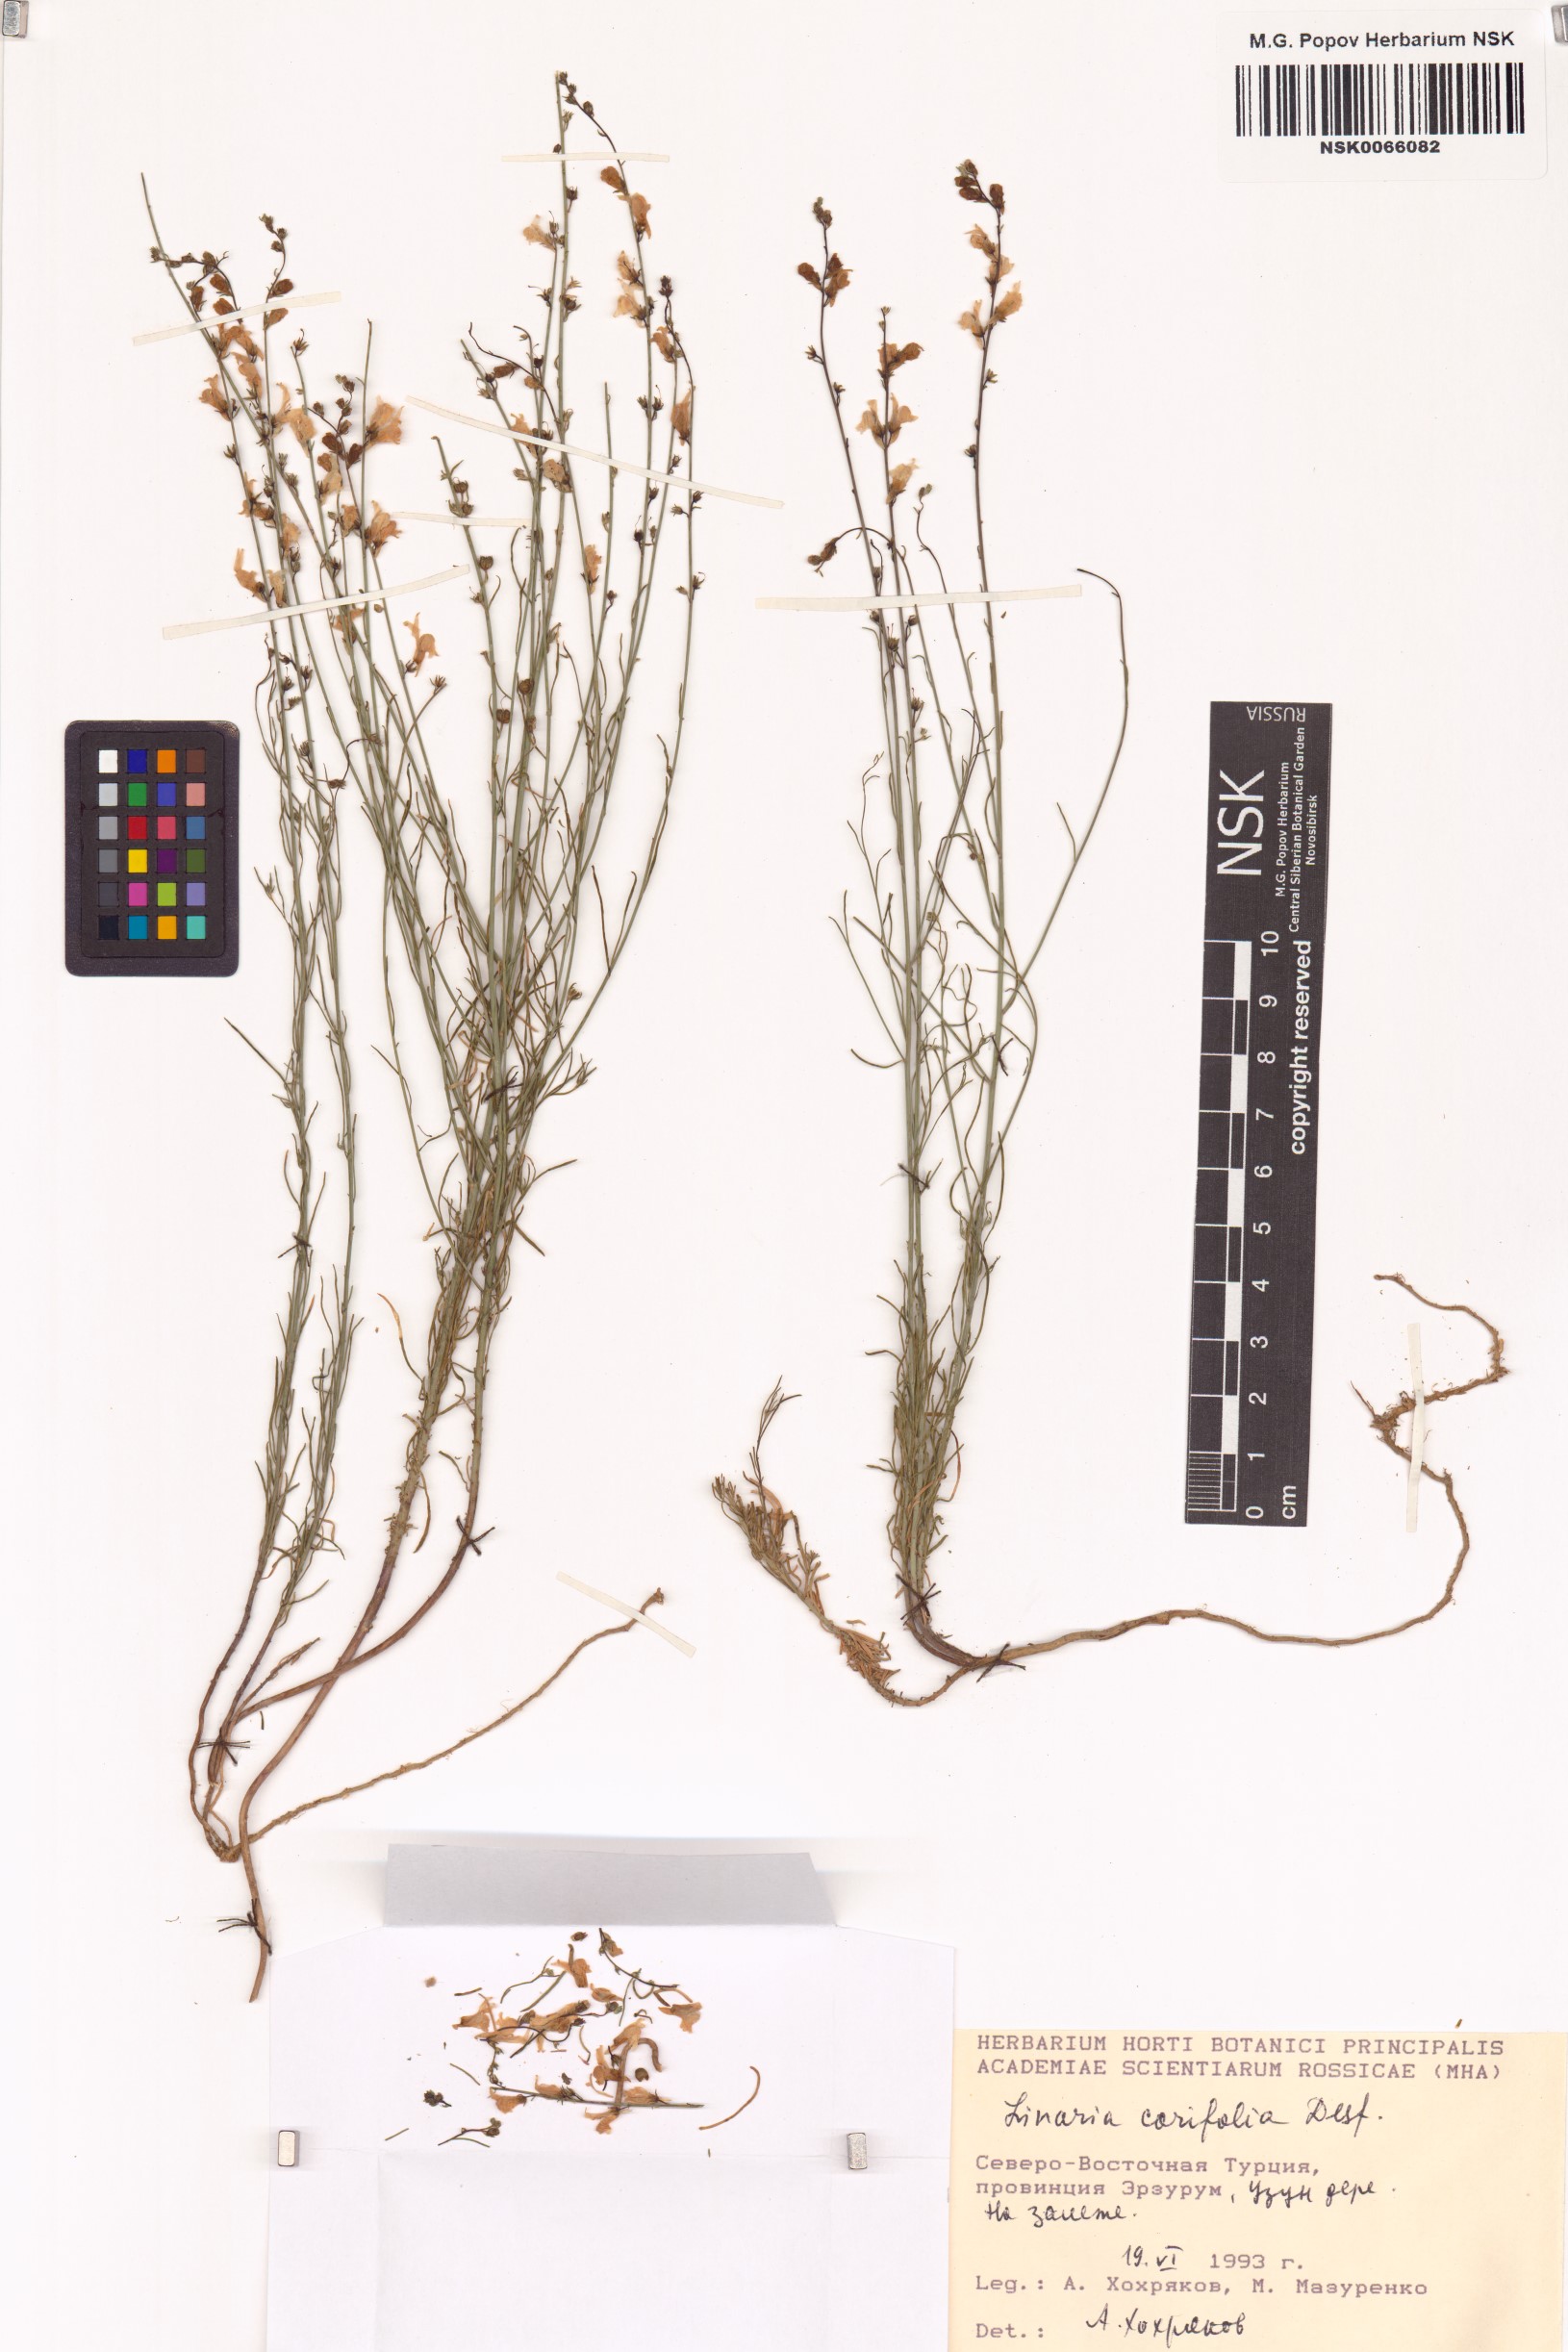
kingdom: Plantae
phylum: Tracheophyta
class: Magnoliopsida
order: Lamiales
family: Plantaginaceae
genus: Linaria
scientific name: Linaria corifolia
